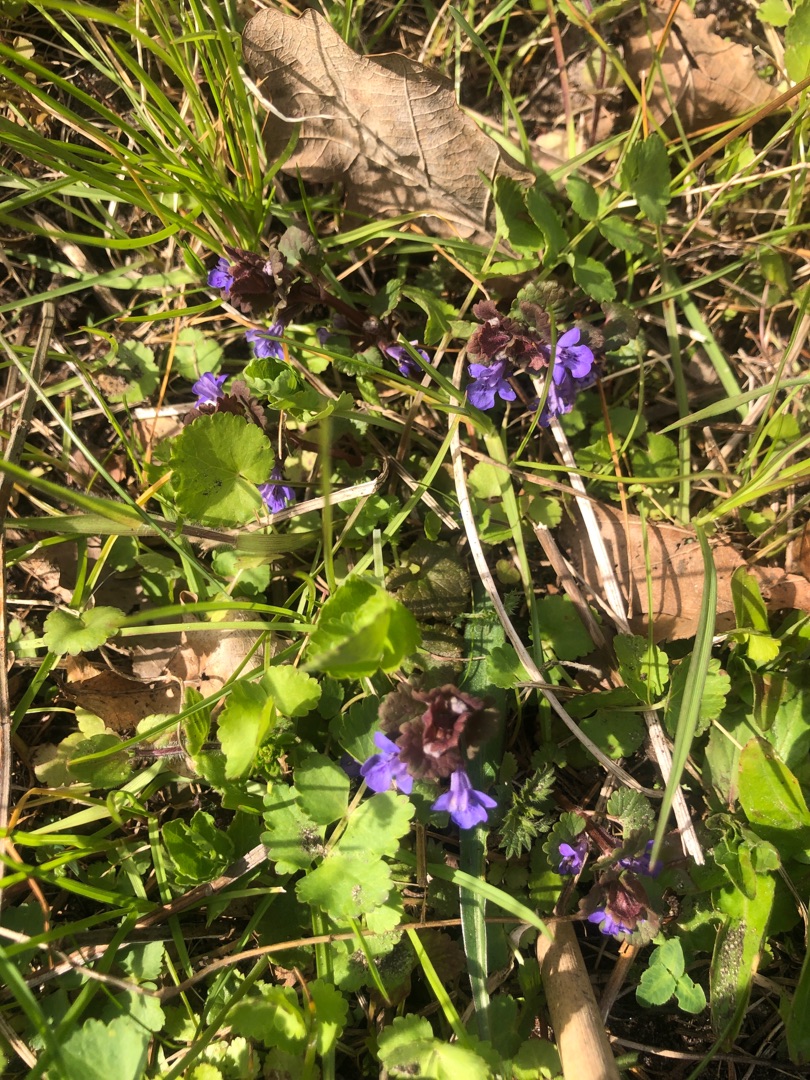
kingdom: Plantae
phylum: Tracheophyta
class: Magnoliopsida
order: Lamiales
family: Lamiaceae
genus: Glechoma
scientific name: Glechoma hederacea
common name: Korsknap
